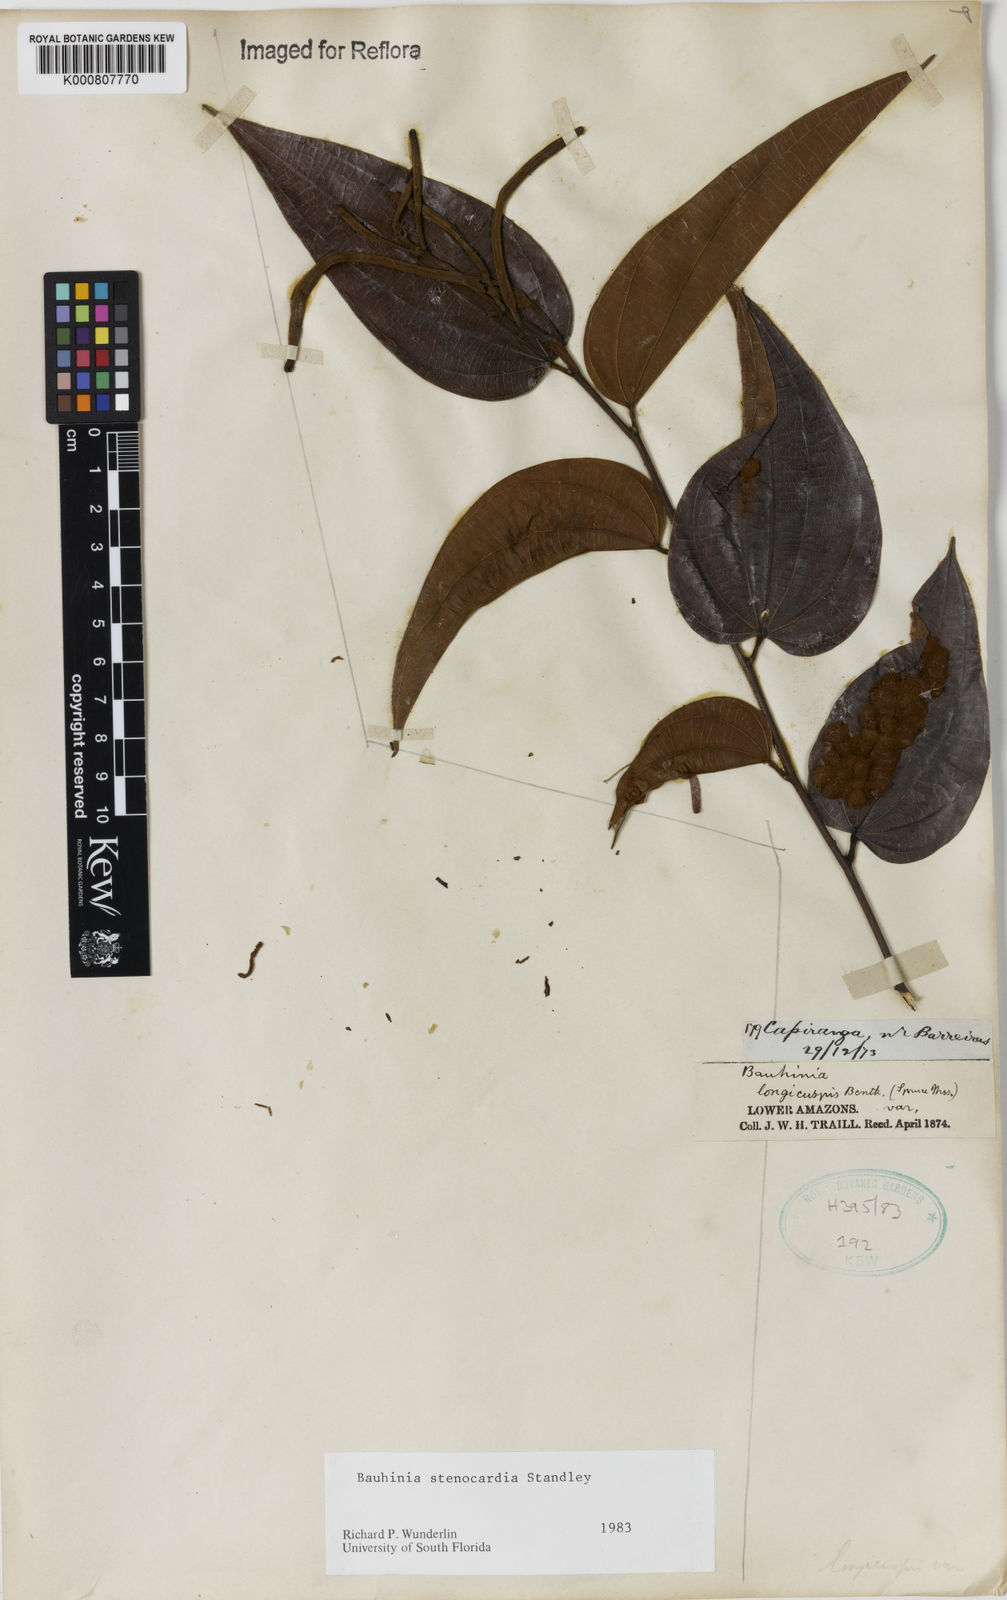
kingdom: Plantae
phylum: Tracheophyta
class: Magnoliopsida
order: Fabales
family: Fabaceae
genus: Bauhinia
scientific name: Bauhinia longicuspis
